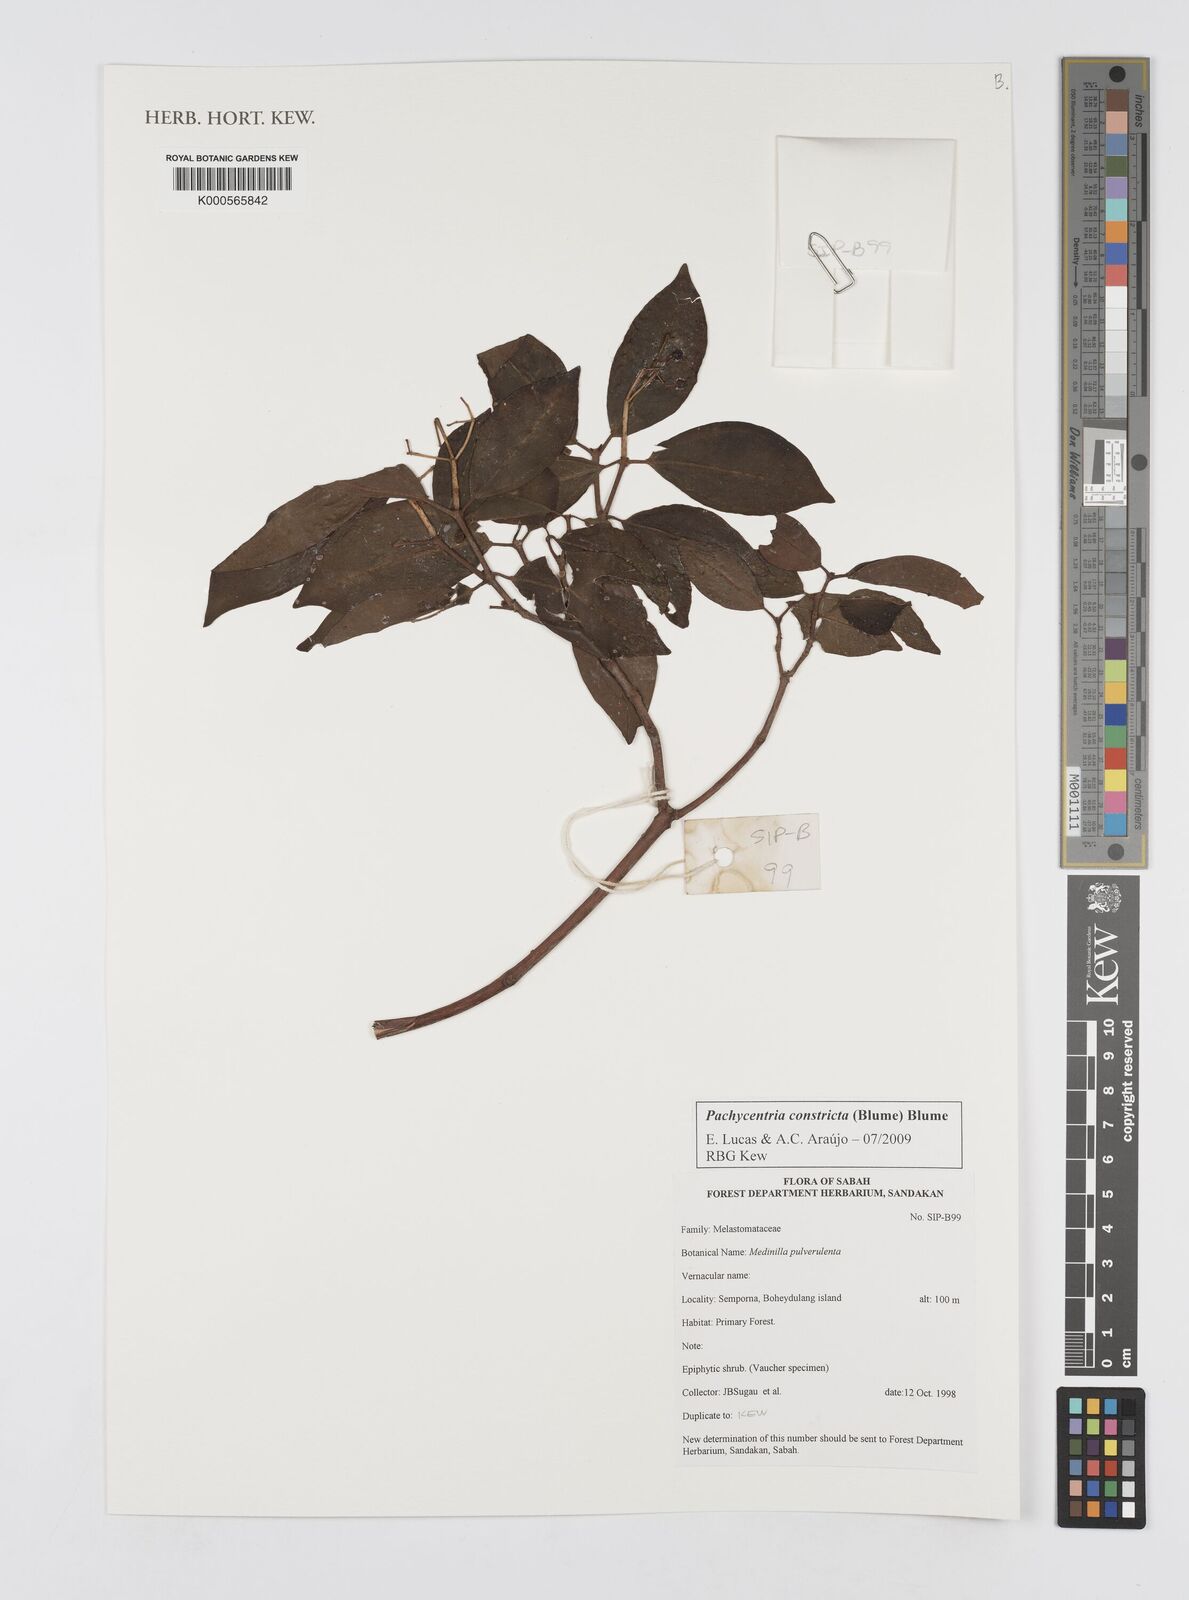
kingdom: Plantae
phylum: Tracheophyta
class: Magnoliopsida
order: Myrtales
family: Melastomataceae
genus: Pachycentria
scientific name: Pachycentria constricta
